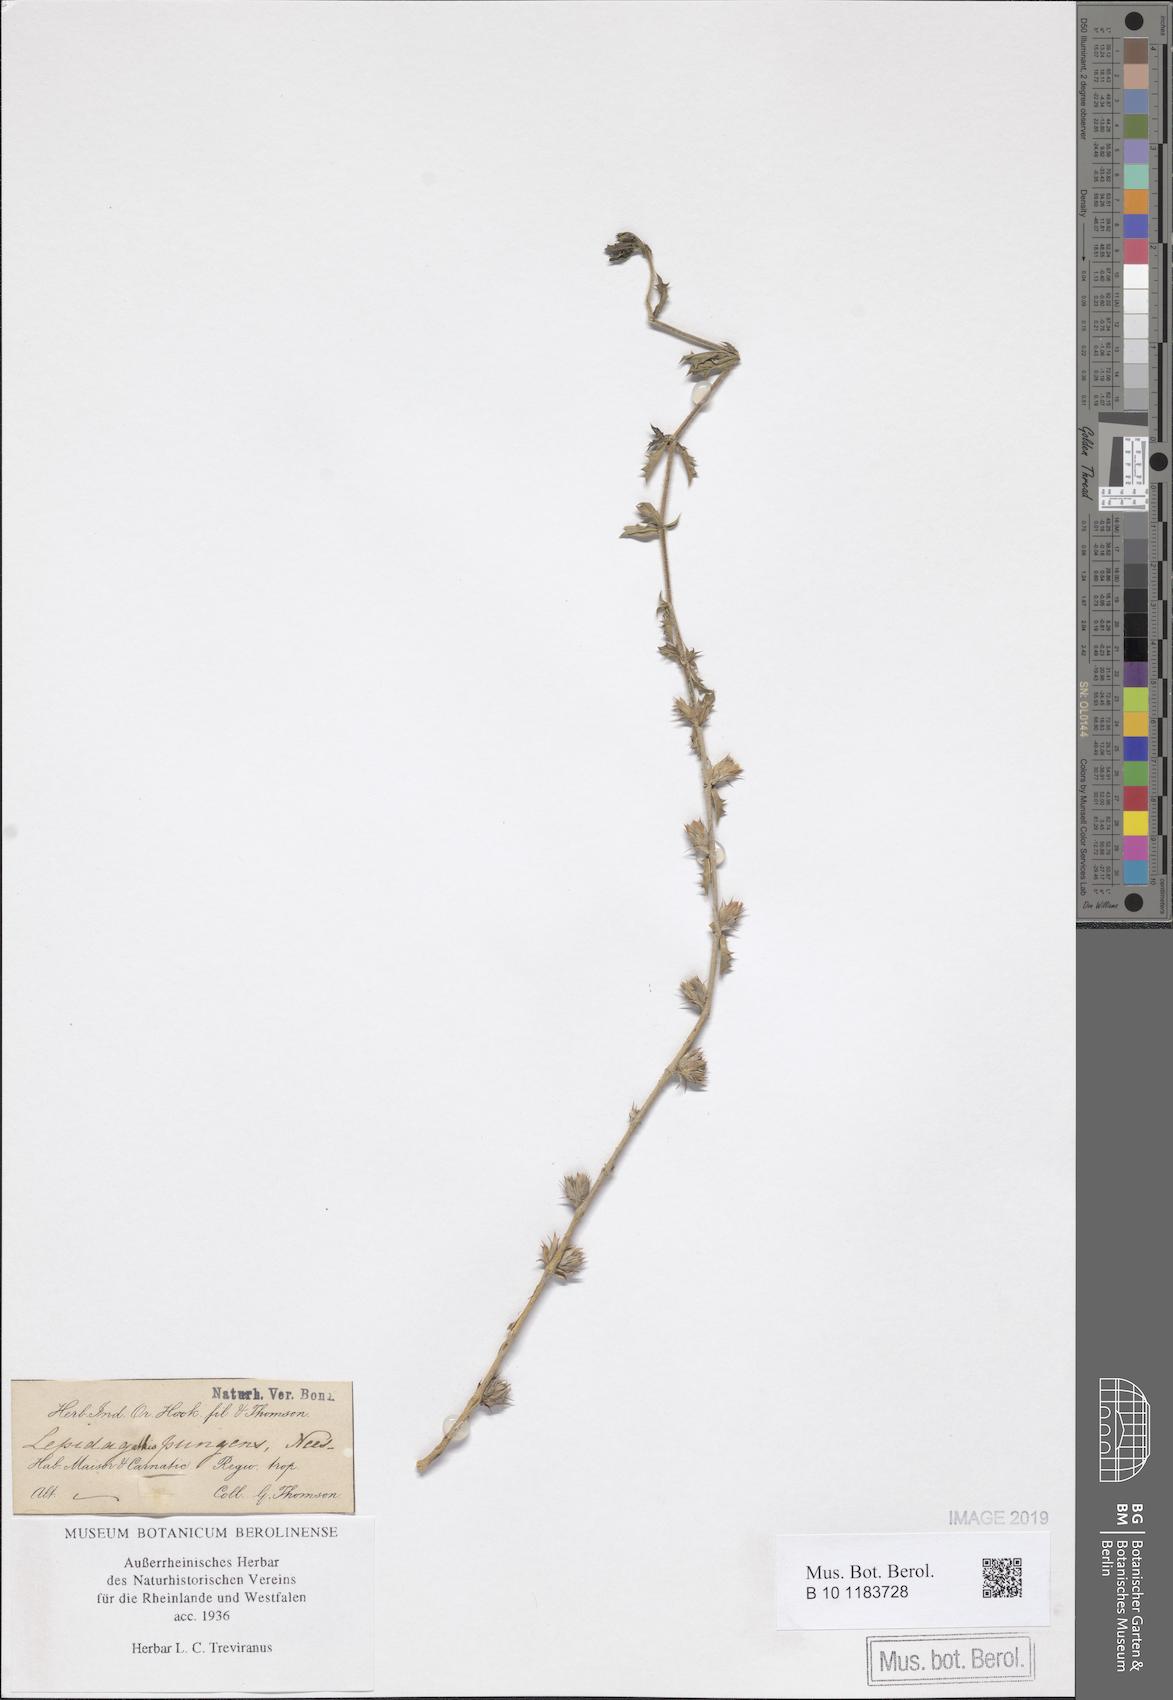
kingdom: Plantae
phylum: Tracheophyta
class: Magnoliopsida
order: Lamiales
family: Acanthaceae
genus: Lepidagathis
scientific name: Lepidagathis pungens
